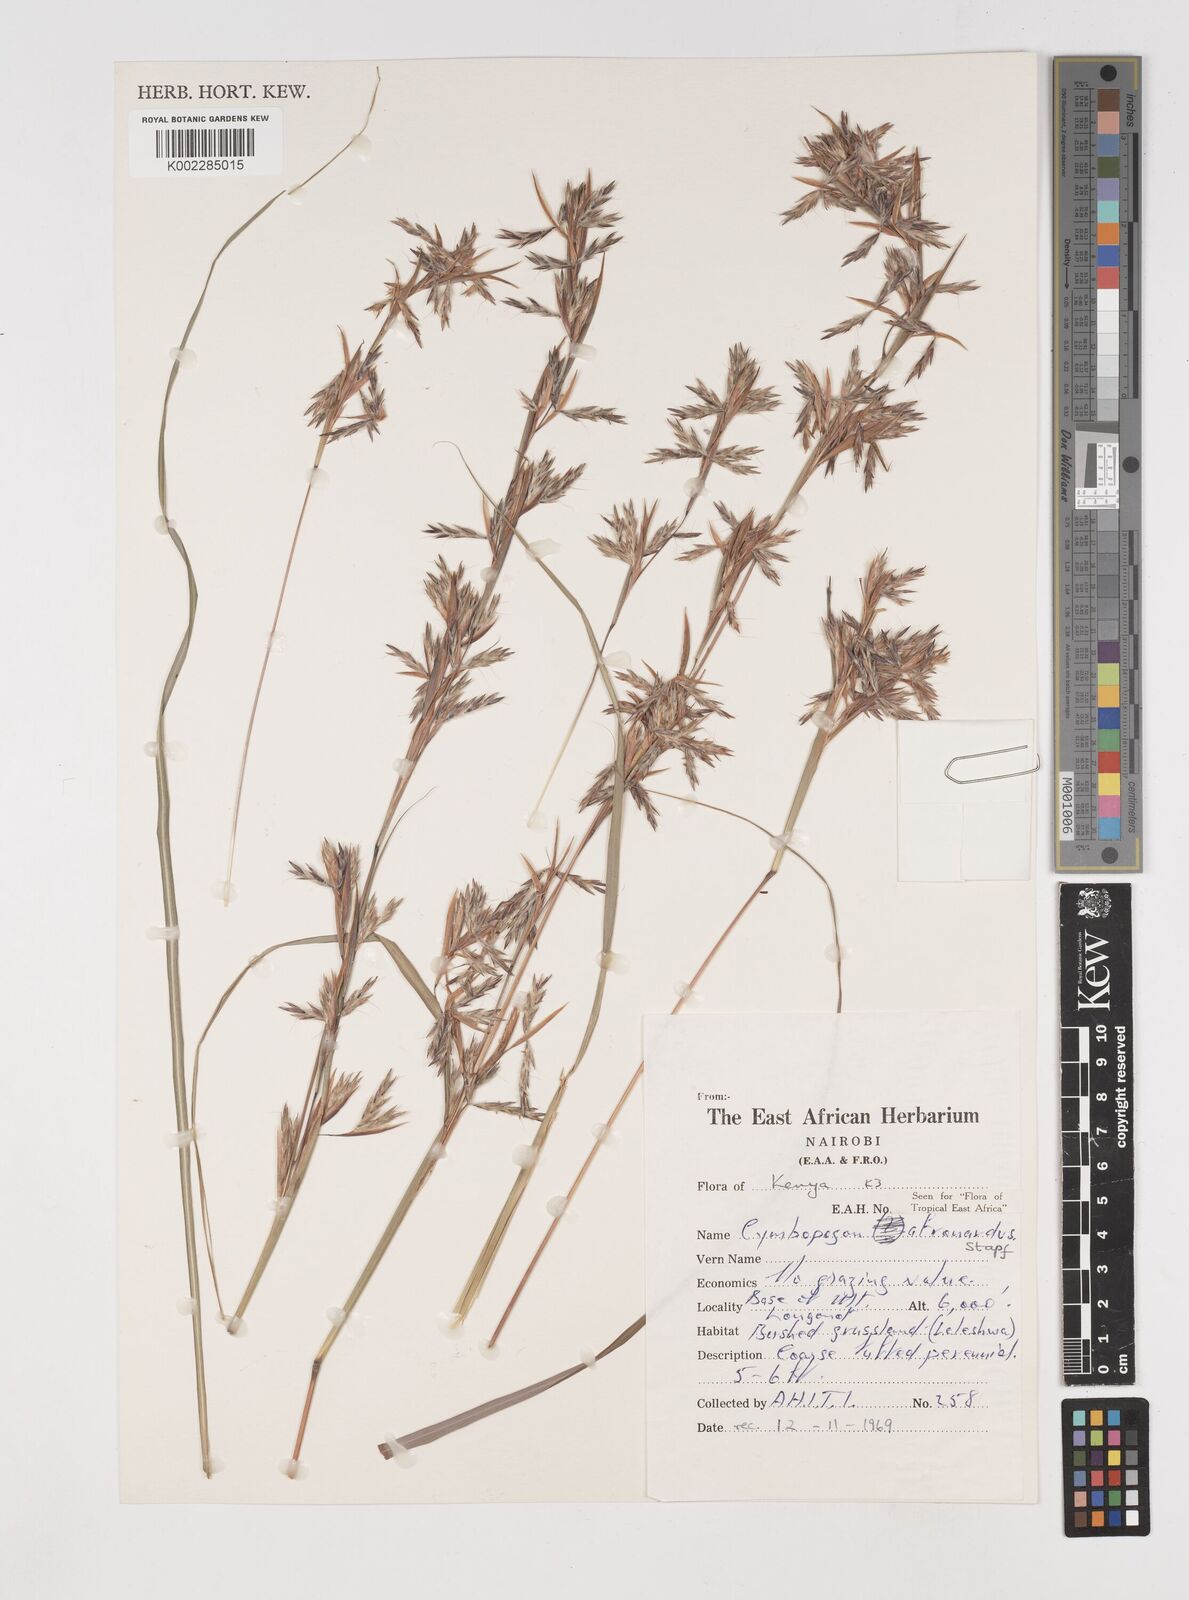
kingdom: Plantae
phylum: Tracheophyta
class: Liliopsida
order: Poales
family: Poaceae
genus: Cymbopogon
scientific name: Cymbopogon nardus
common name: Giant turpentine grass
